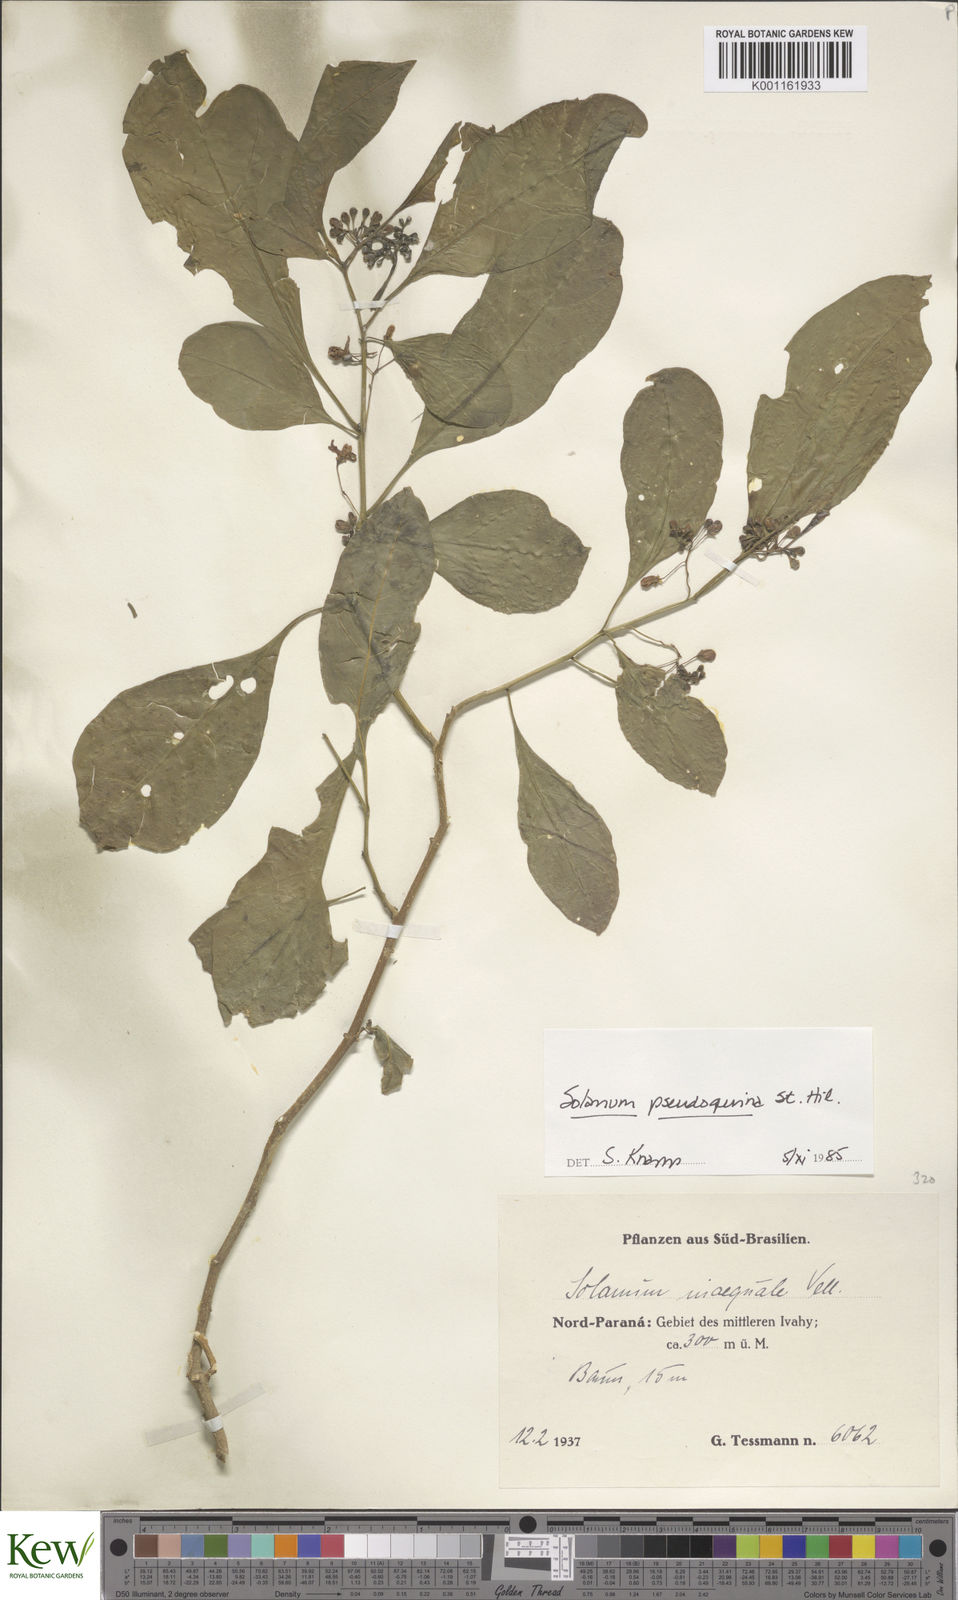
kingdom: Plantae
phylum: Tracheophyta
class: Magnoliopsida
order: Solanales
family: Solanaceae
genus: Solanum
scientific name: Solanum pseudoquina
